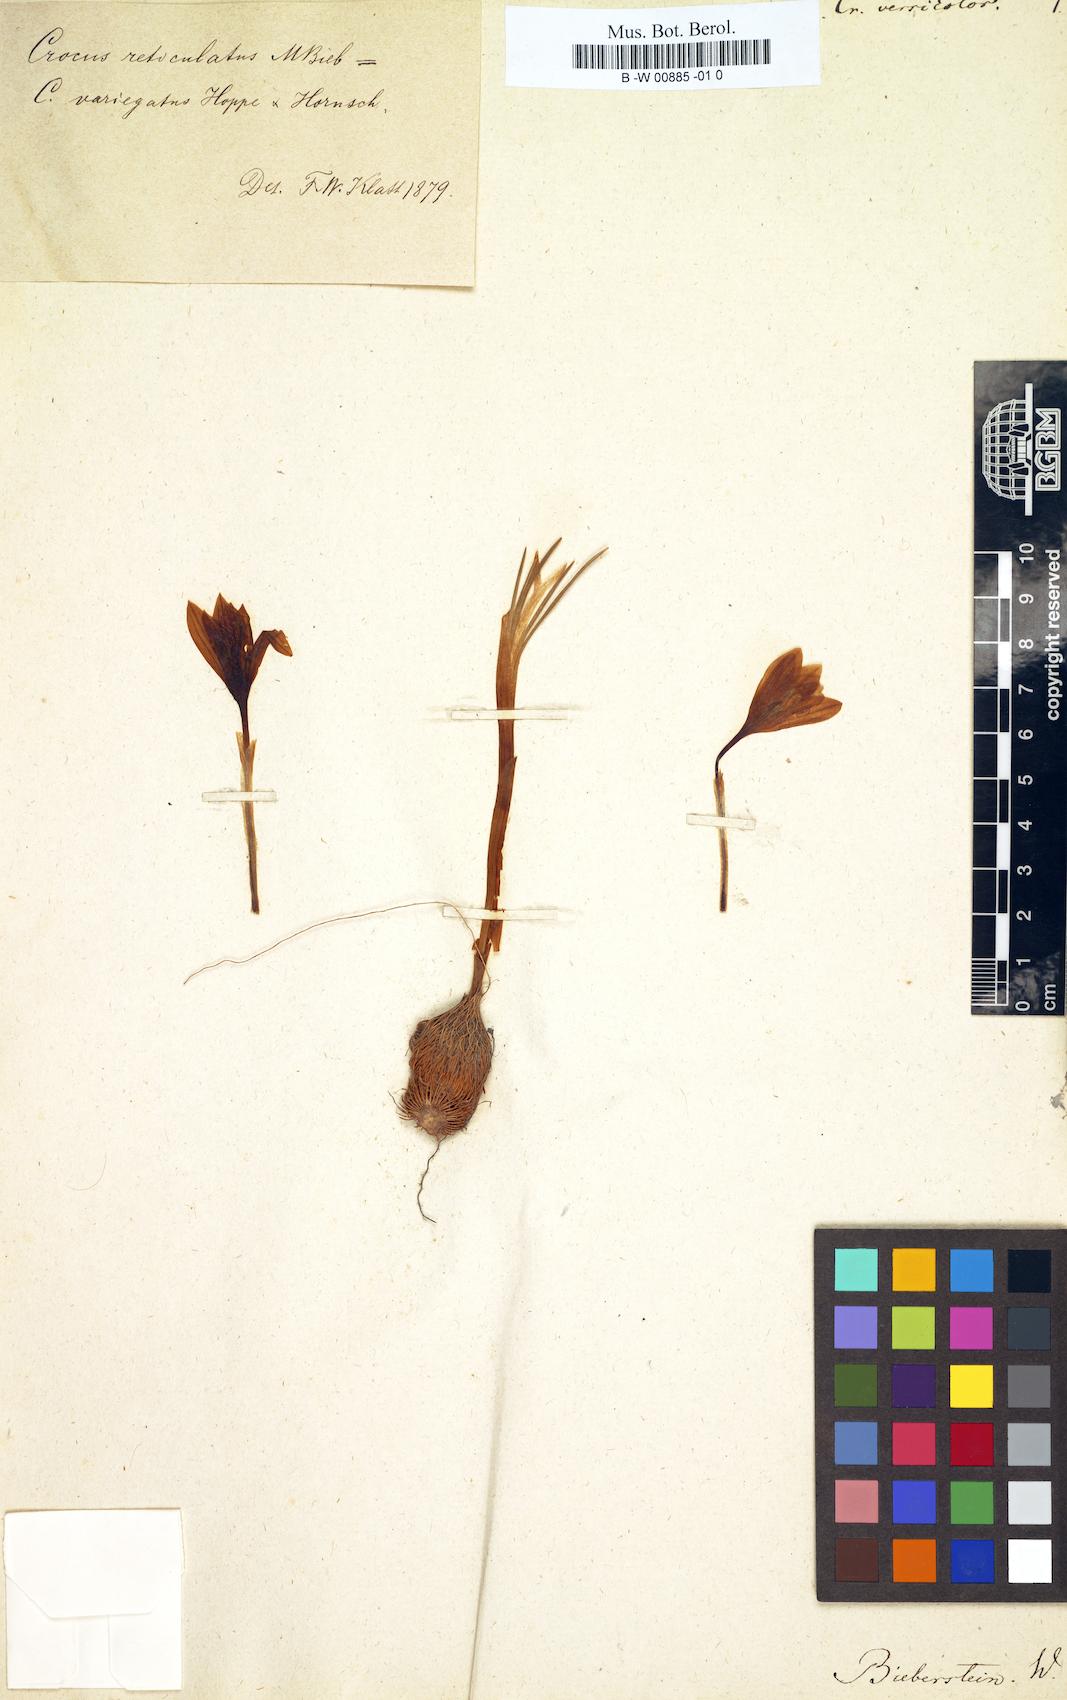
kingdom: Plantae
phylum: Tracheophyta
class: Liliopsida
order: Asparagales
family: Iridaceae
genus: Crocus
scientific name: Crocus versicolor
